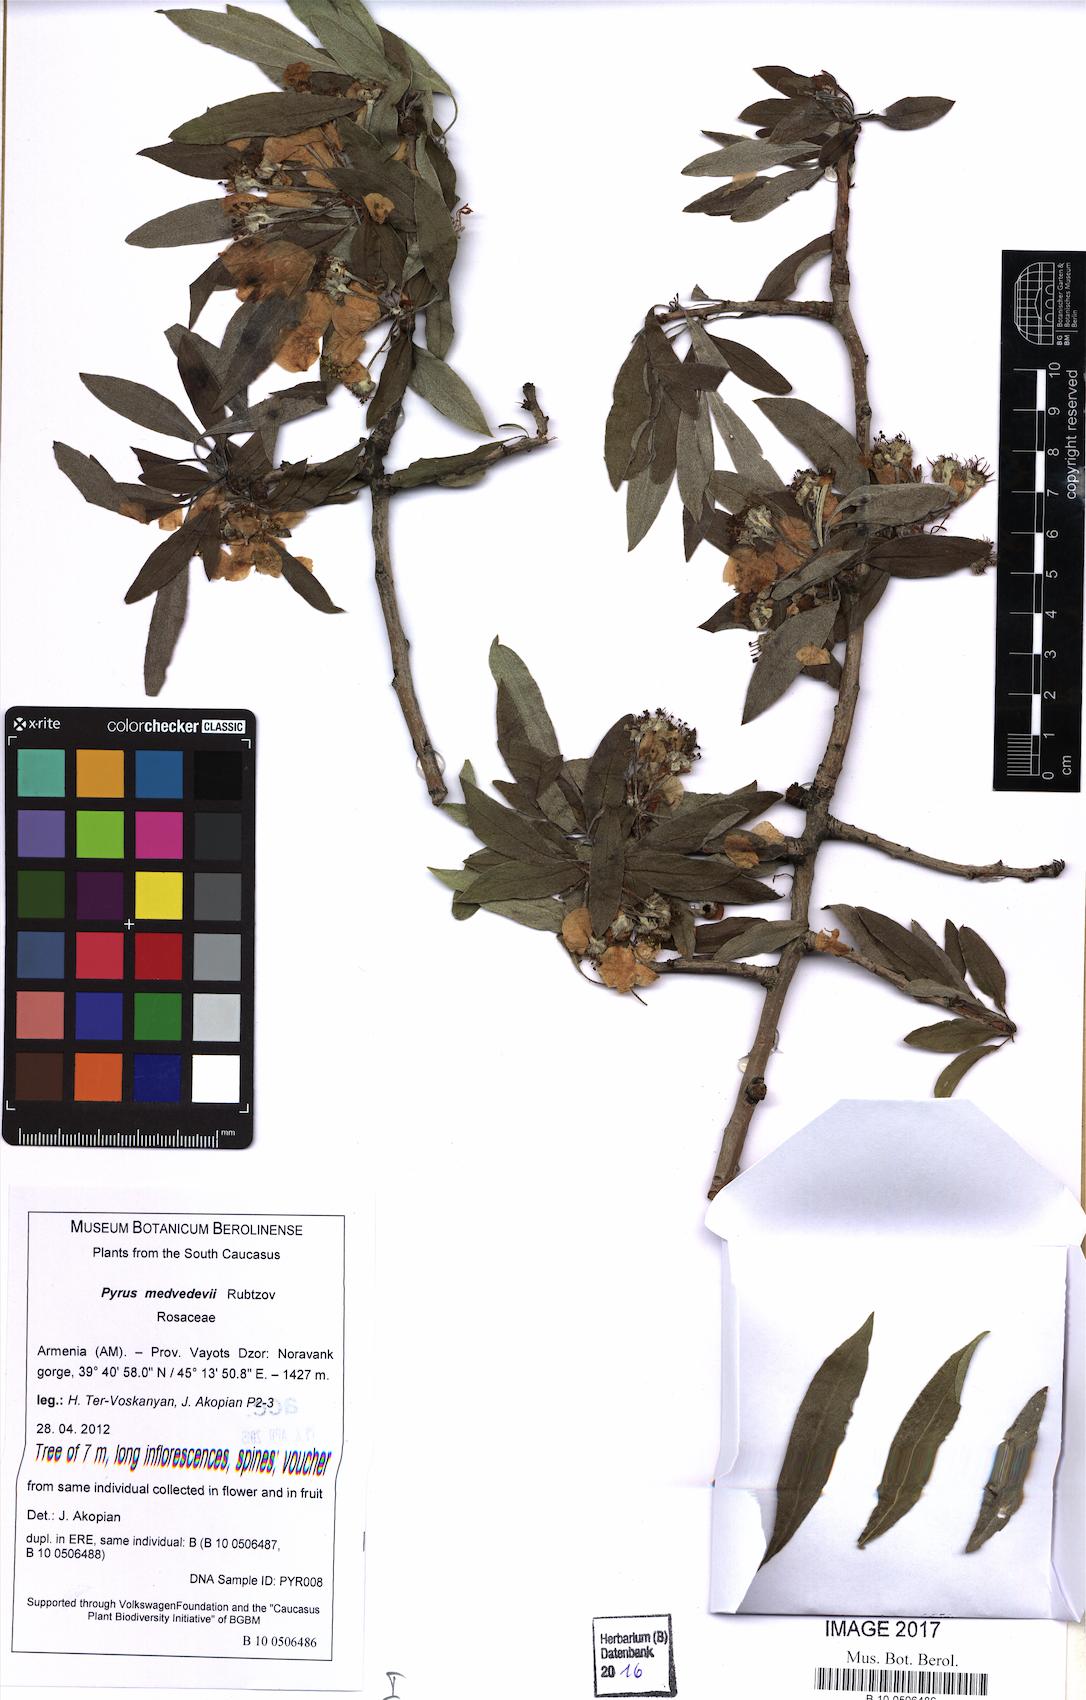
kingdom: Plantae
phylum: Tracheophyta
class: Magnoliopsida
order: Rosales
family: Rosaceae
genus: Pyrus
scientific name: Pyrus medvedevii
